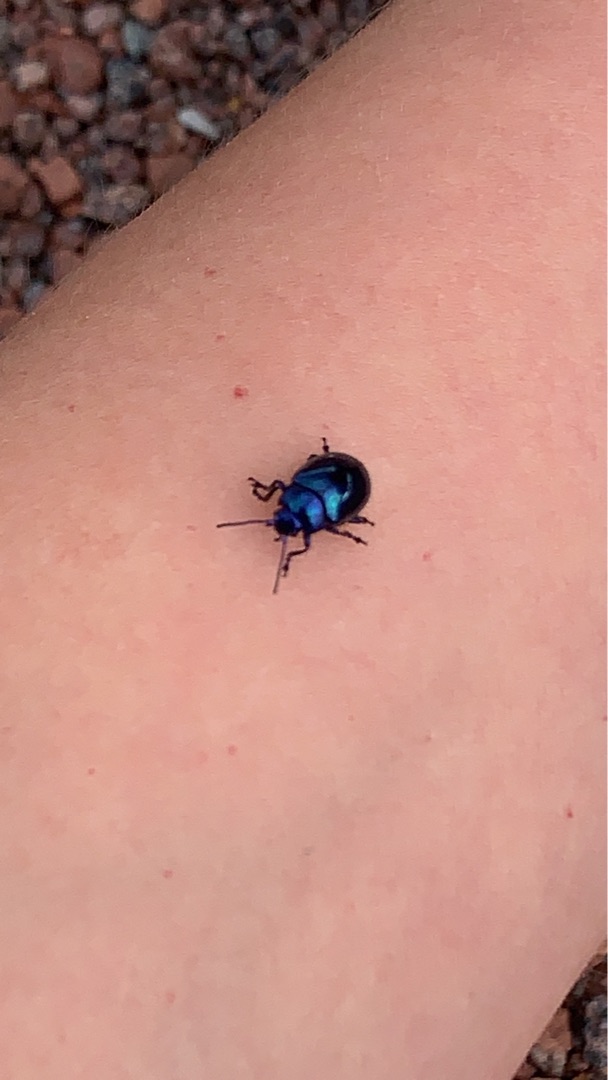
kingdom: Animalia
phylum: Arthropoda
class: Insecta
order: Coleoptera
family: Chrysomelidae
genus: Chrysolina
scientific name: Chrysolina coerulans
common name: Blå mynteguldbille
